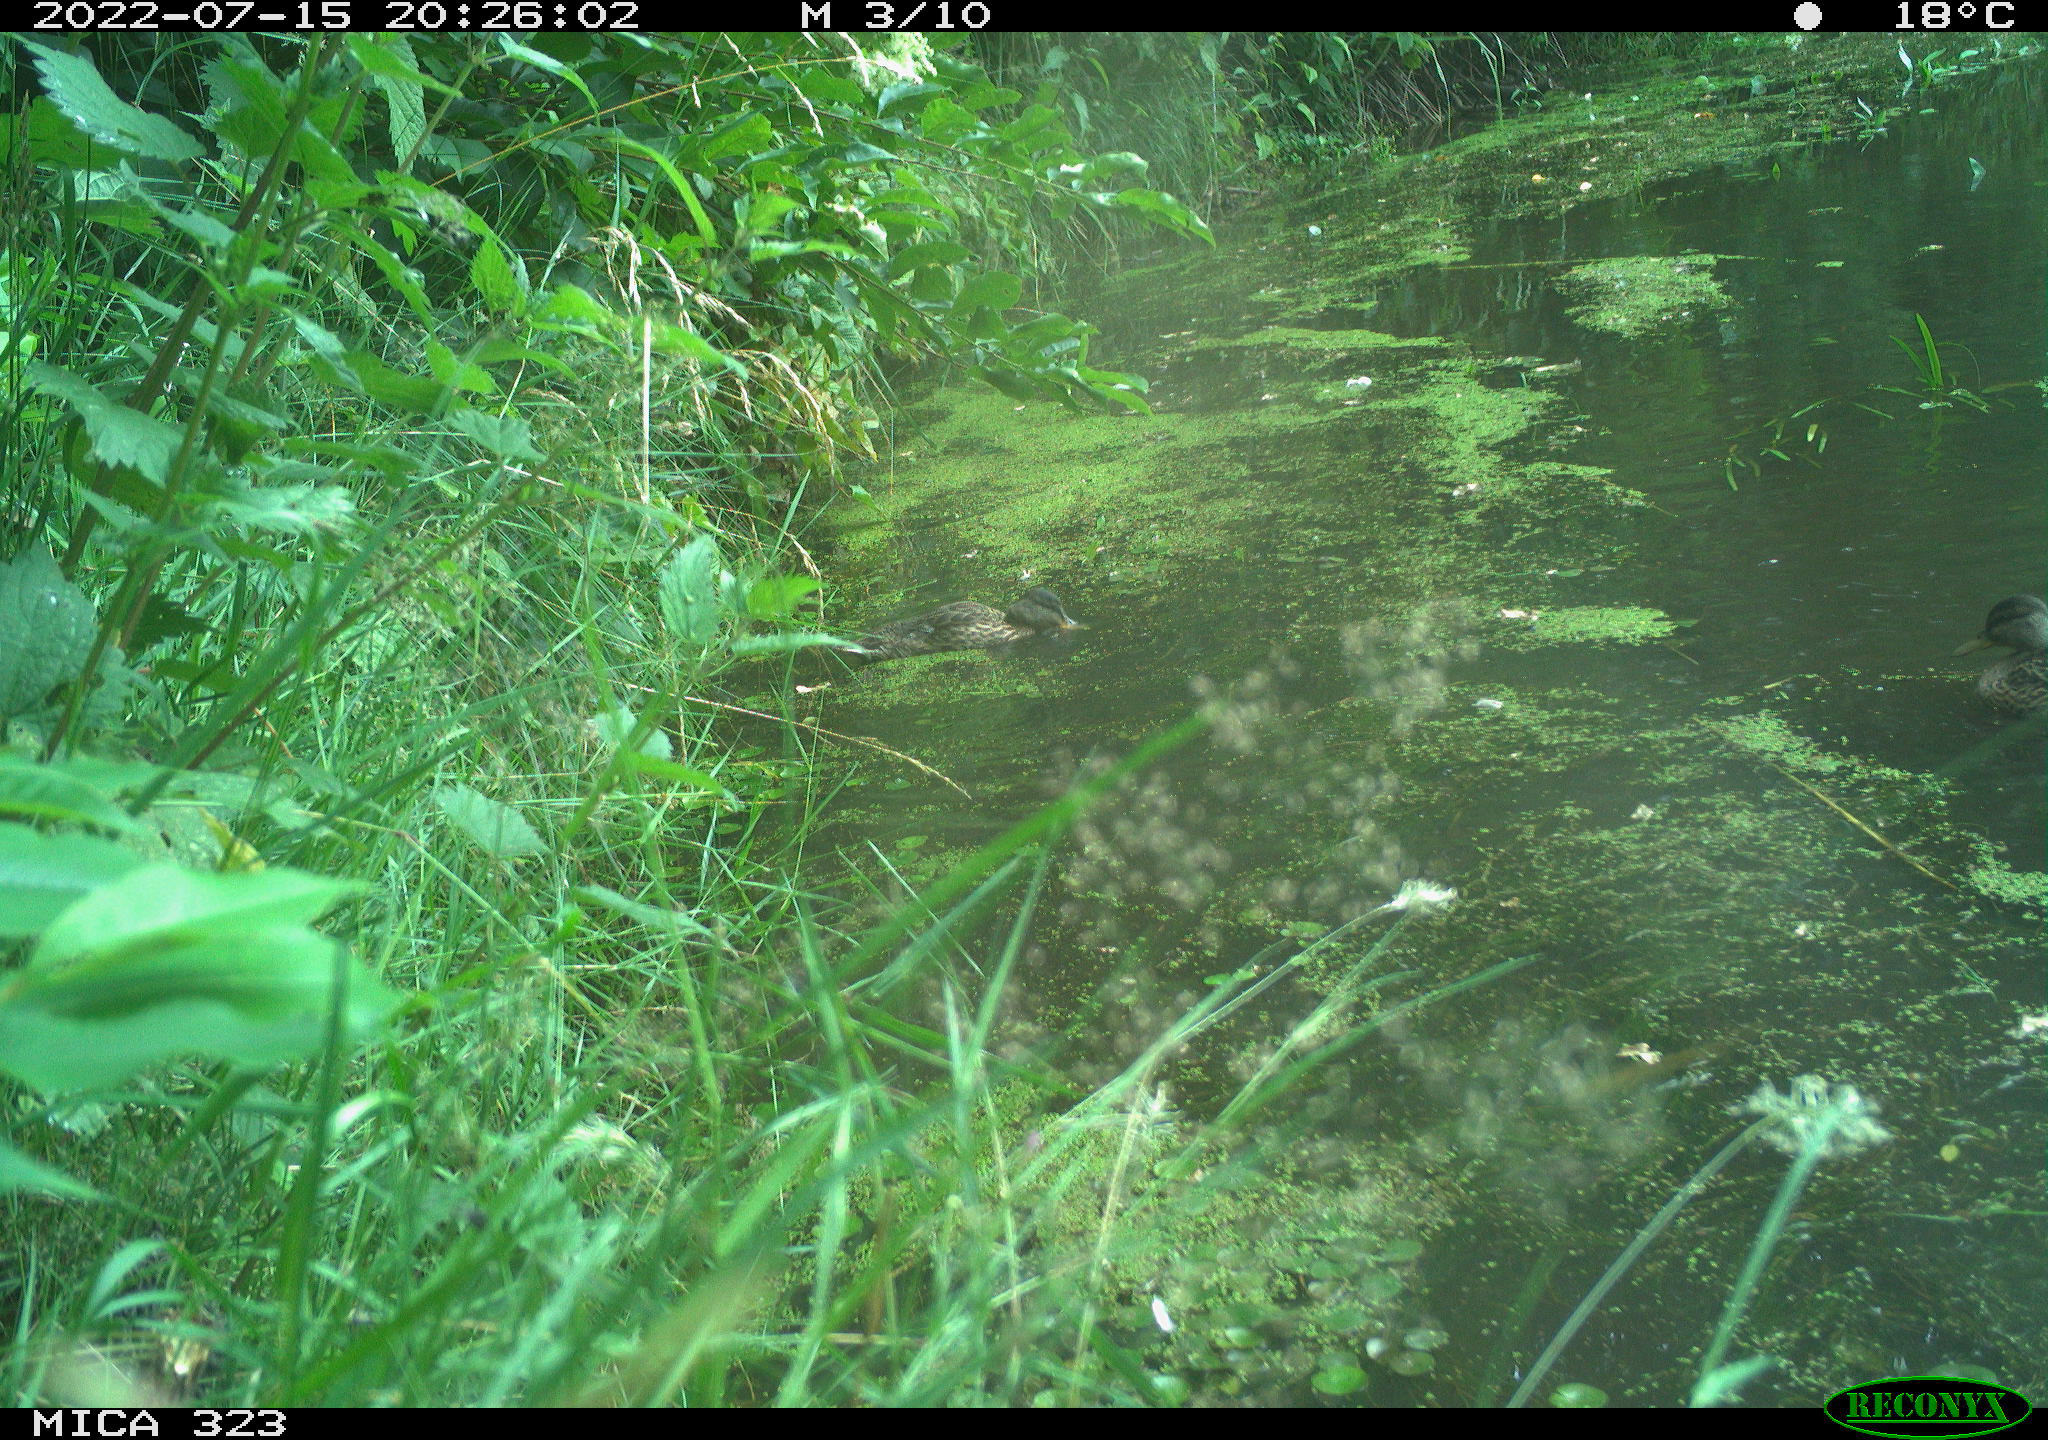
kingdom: Animalia
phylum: Chordata
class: Aves
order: Anseriformes
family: Anatidae
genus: Anas
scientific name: Anas platyrhynchos
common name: Mallard
